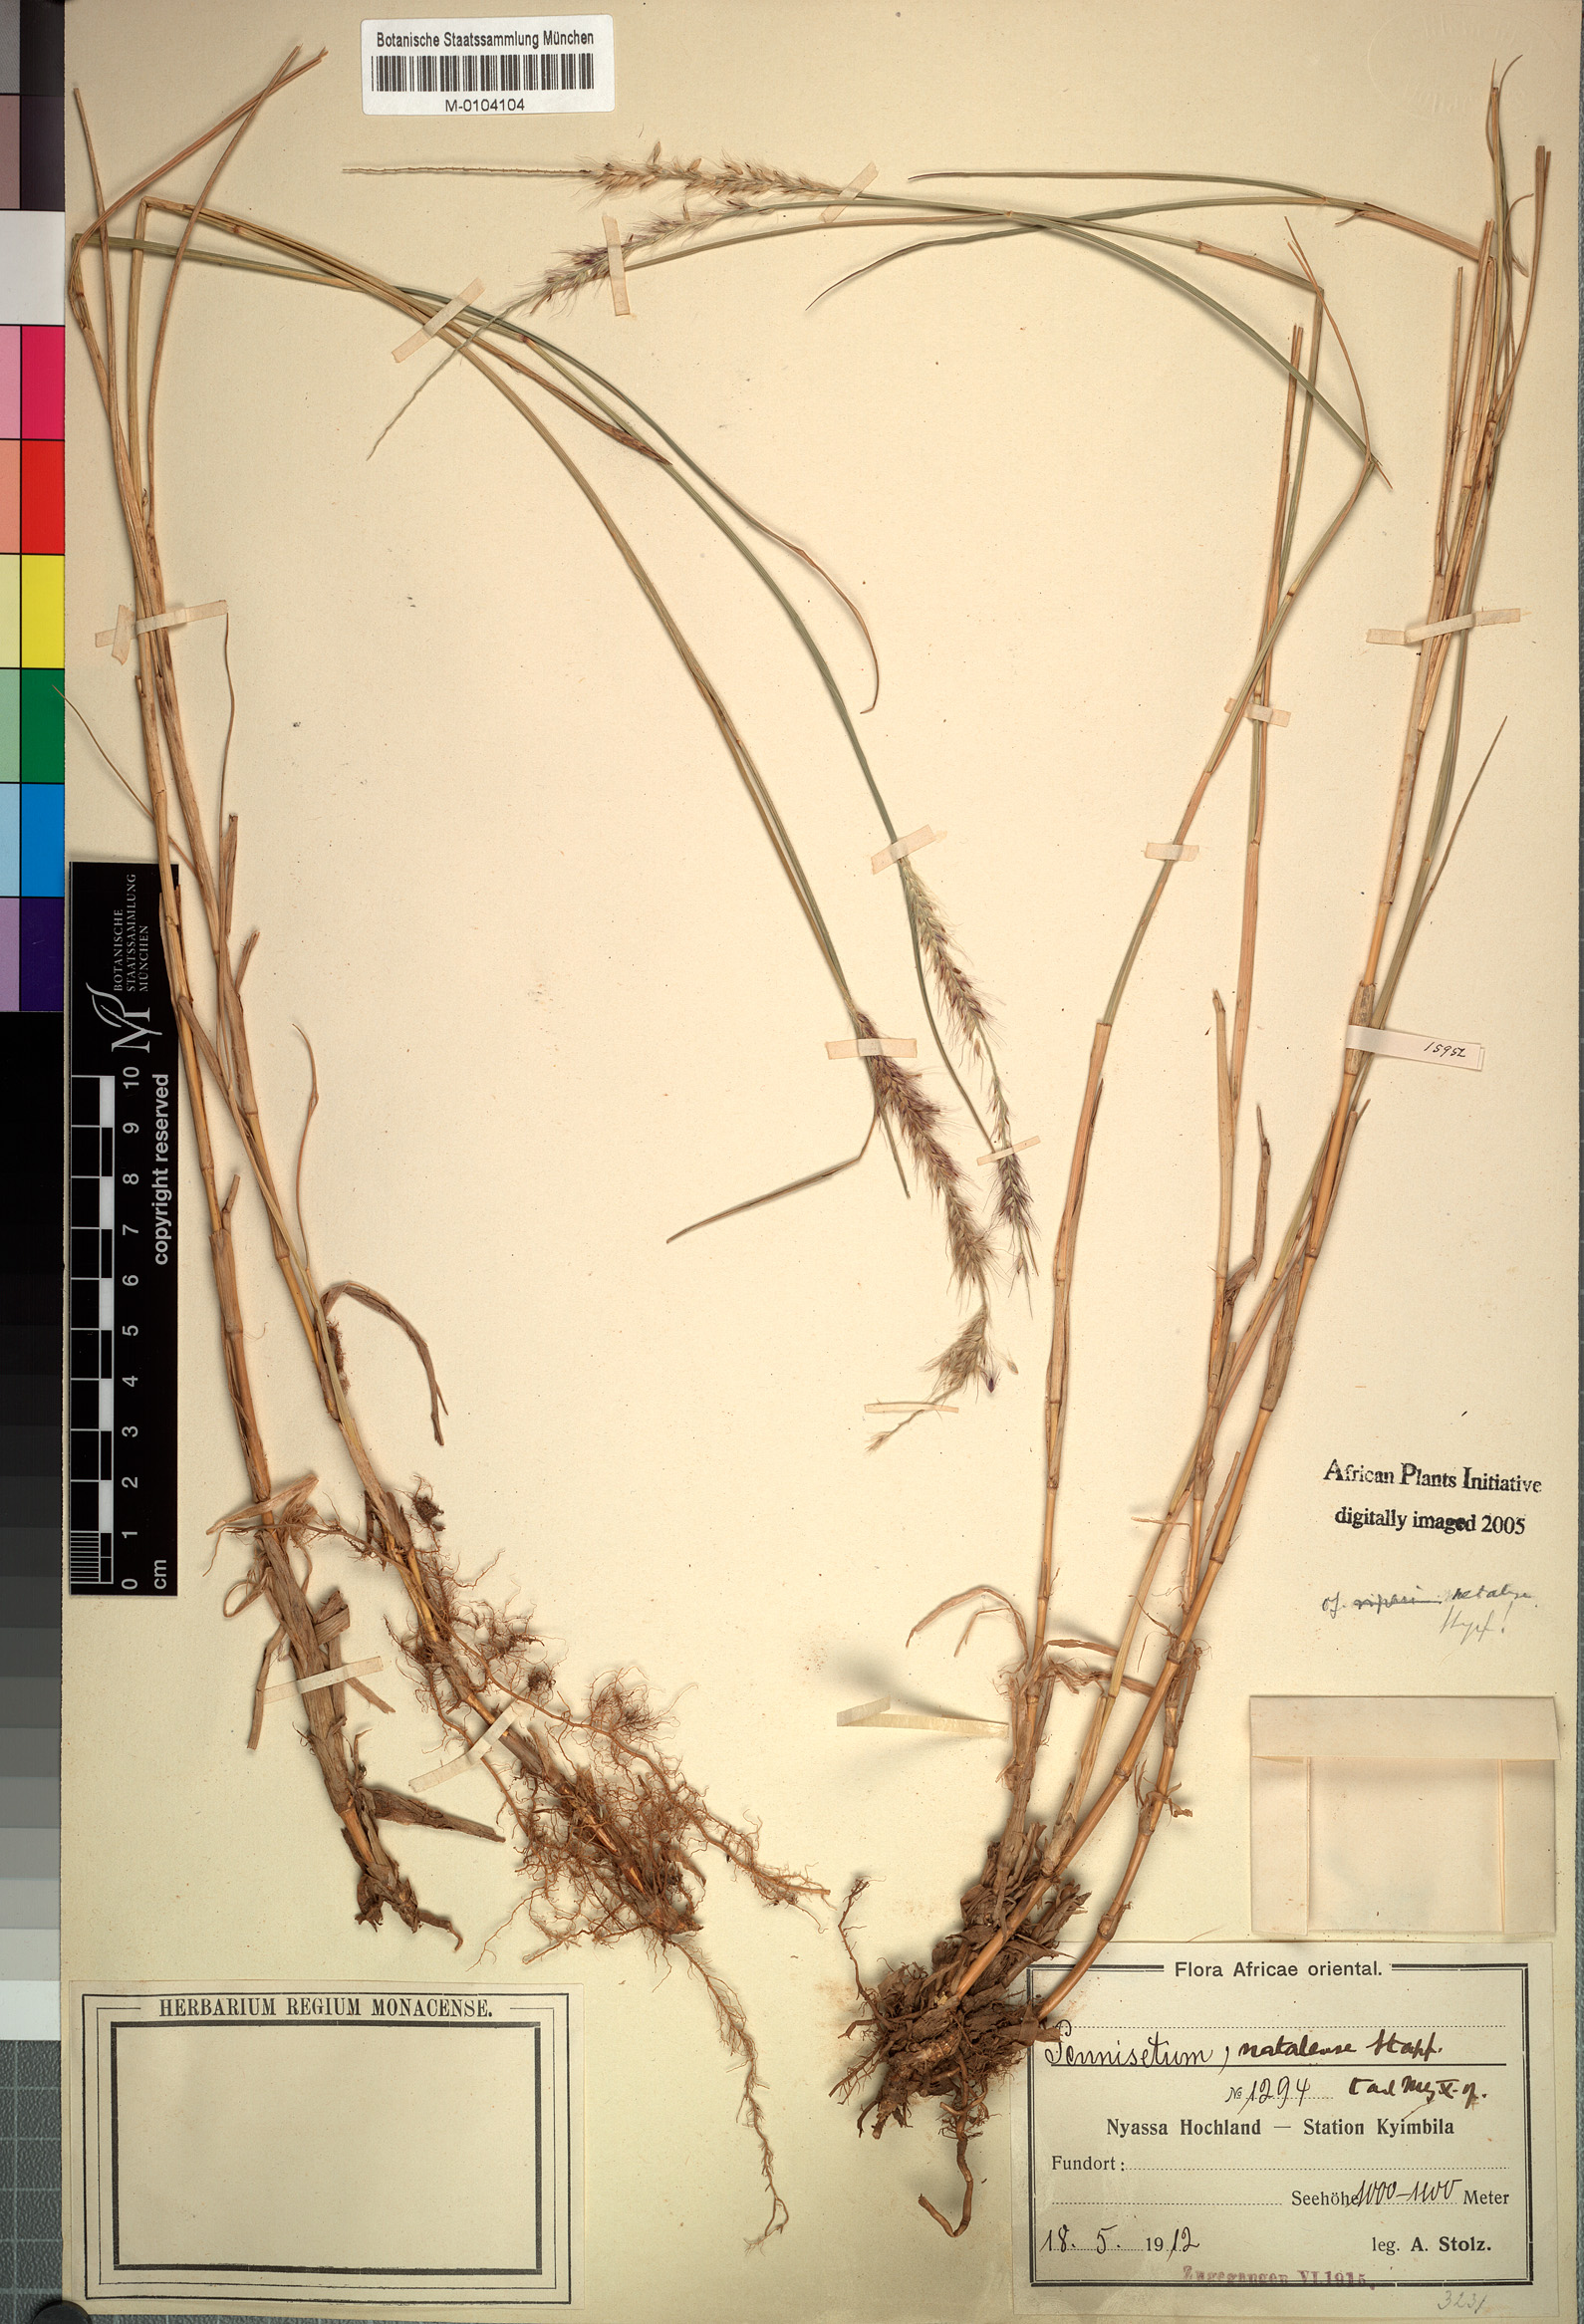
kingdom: Plantae
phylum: Tracheophyta
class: Liliopsida
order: Poales
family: Poaceae
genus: Cenchrus
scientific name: Cenchrus caudatus
